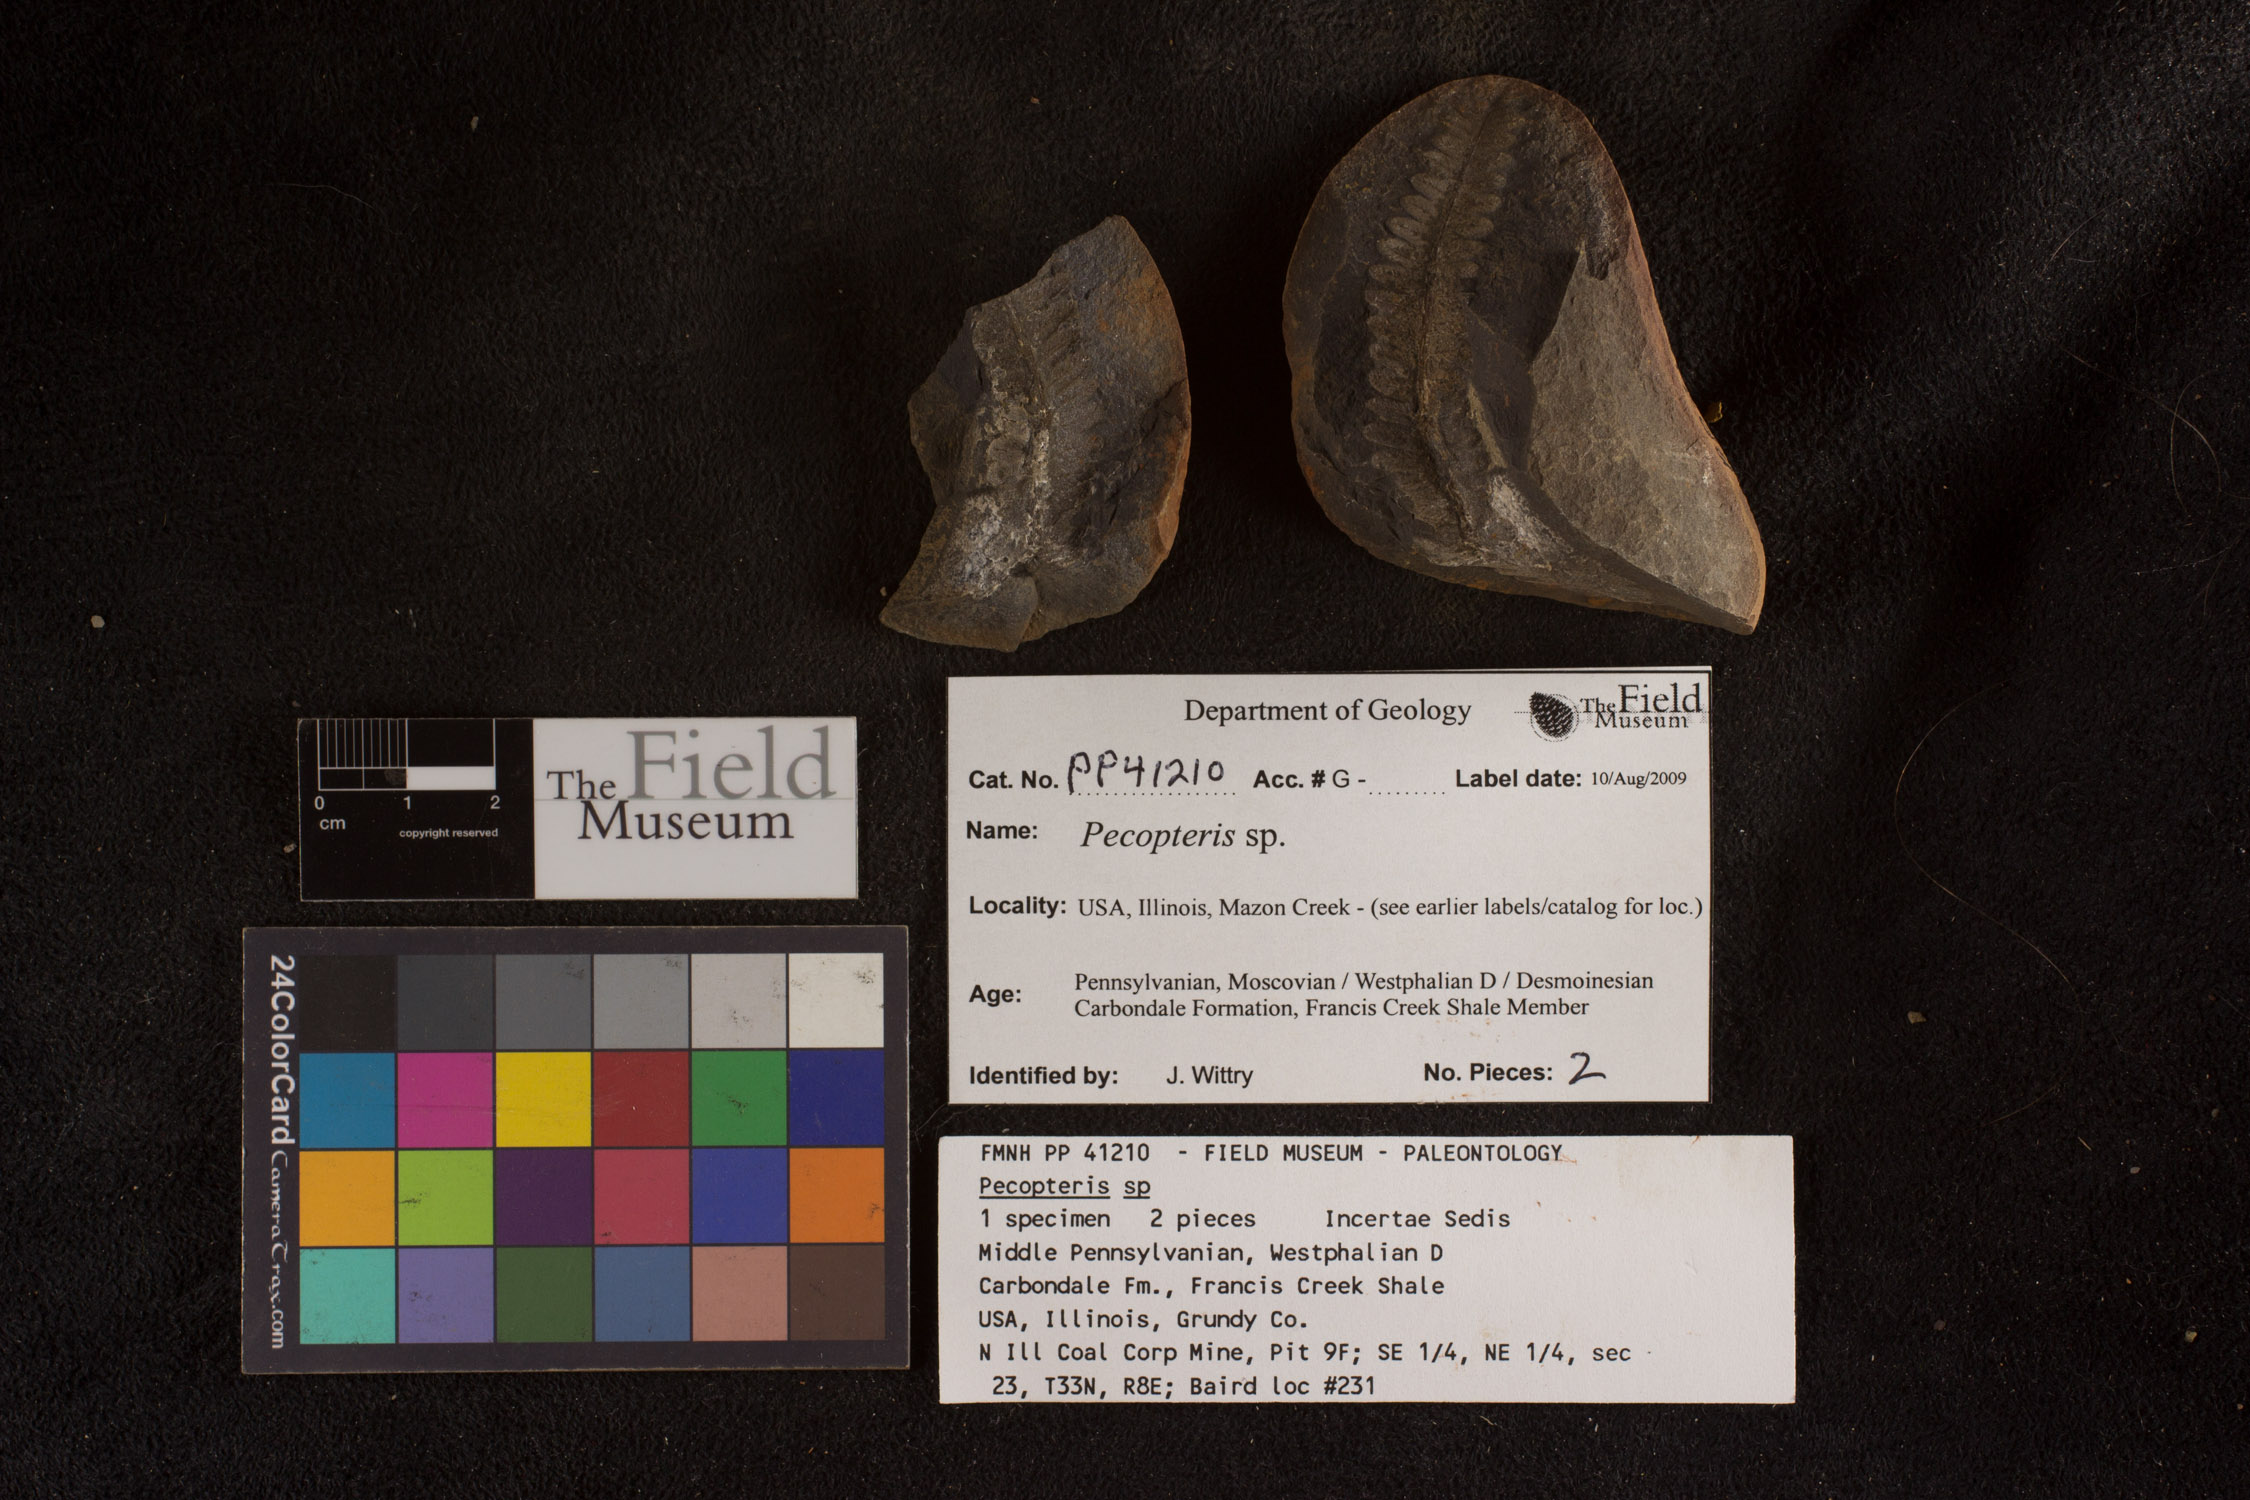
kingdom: Plantae
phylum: Tracheophyta
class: Polypodiopsida
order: Marattiales
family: Asterothecaceae
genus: Pecopteris
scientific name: Pecopteris
